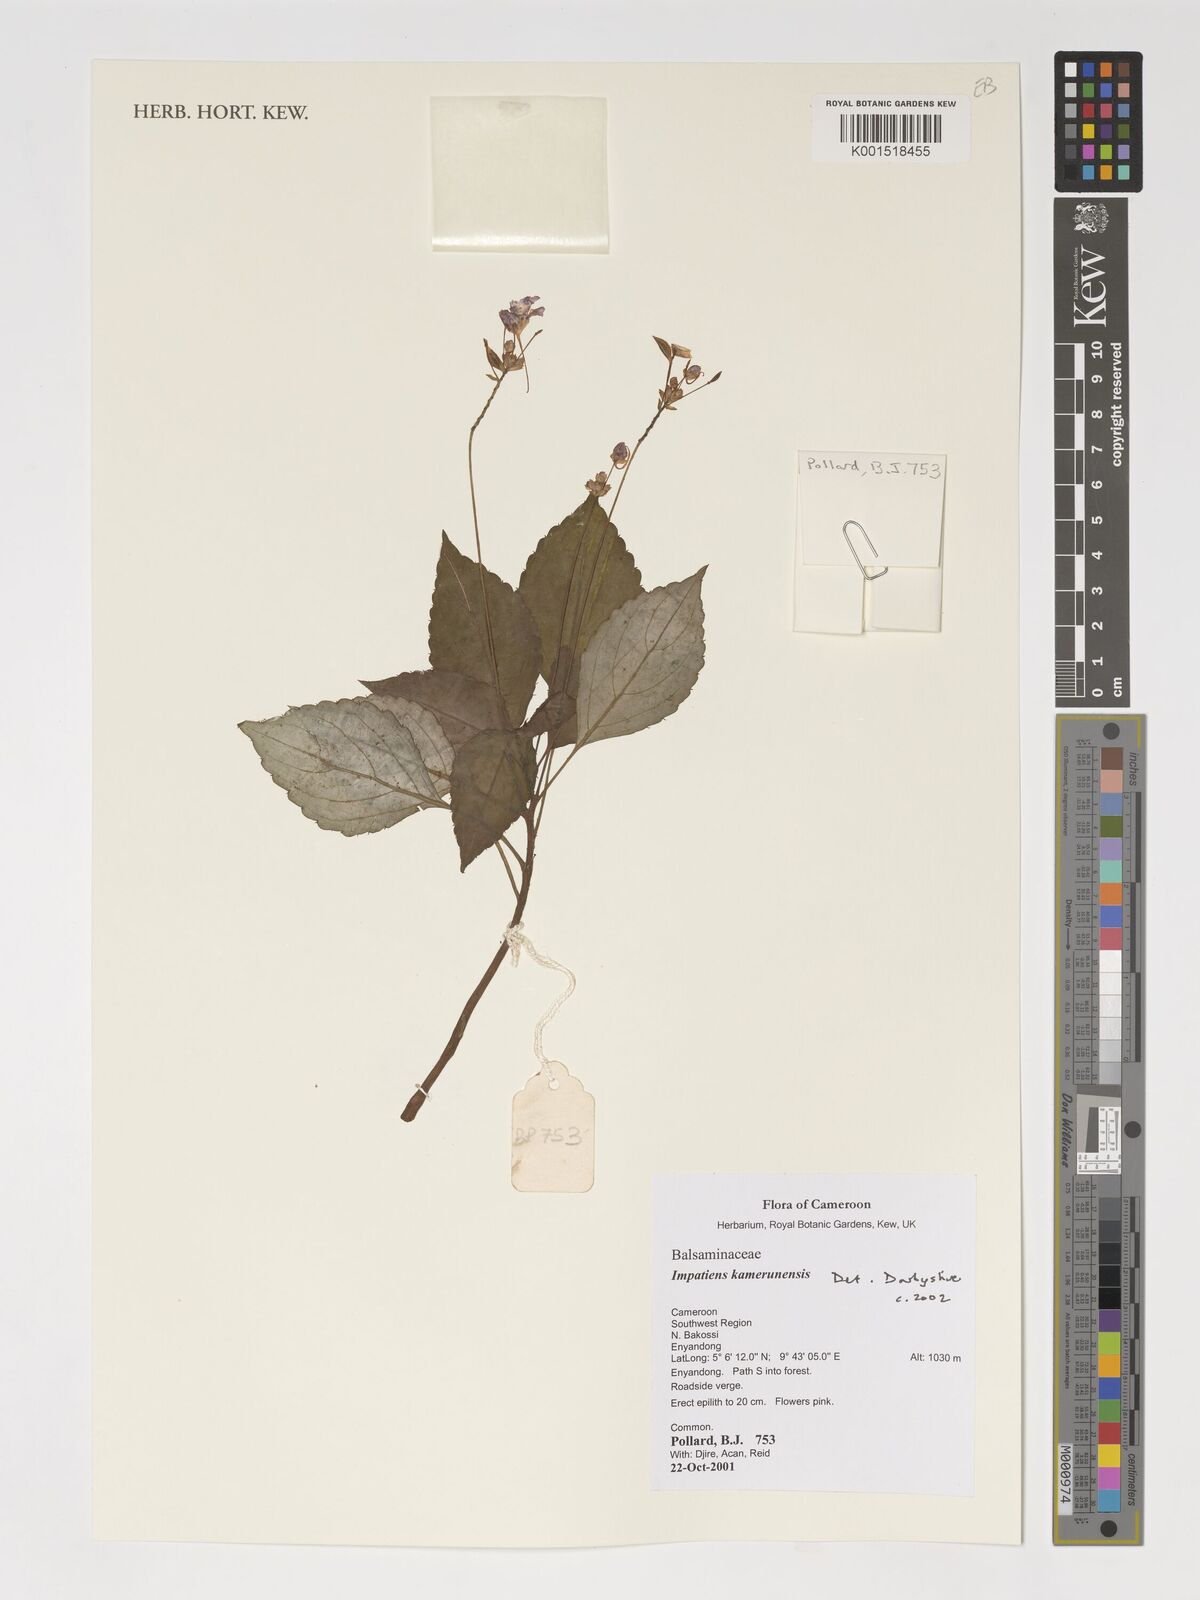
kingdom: Plantae
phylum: Tracheophyta
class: Magnoliopsida
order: Ericales
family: Balsaminaceae
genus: Impatiens
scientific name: Impatiens kamerunensis
